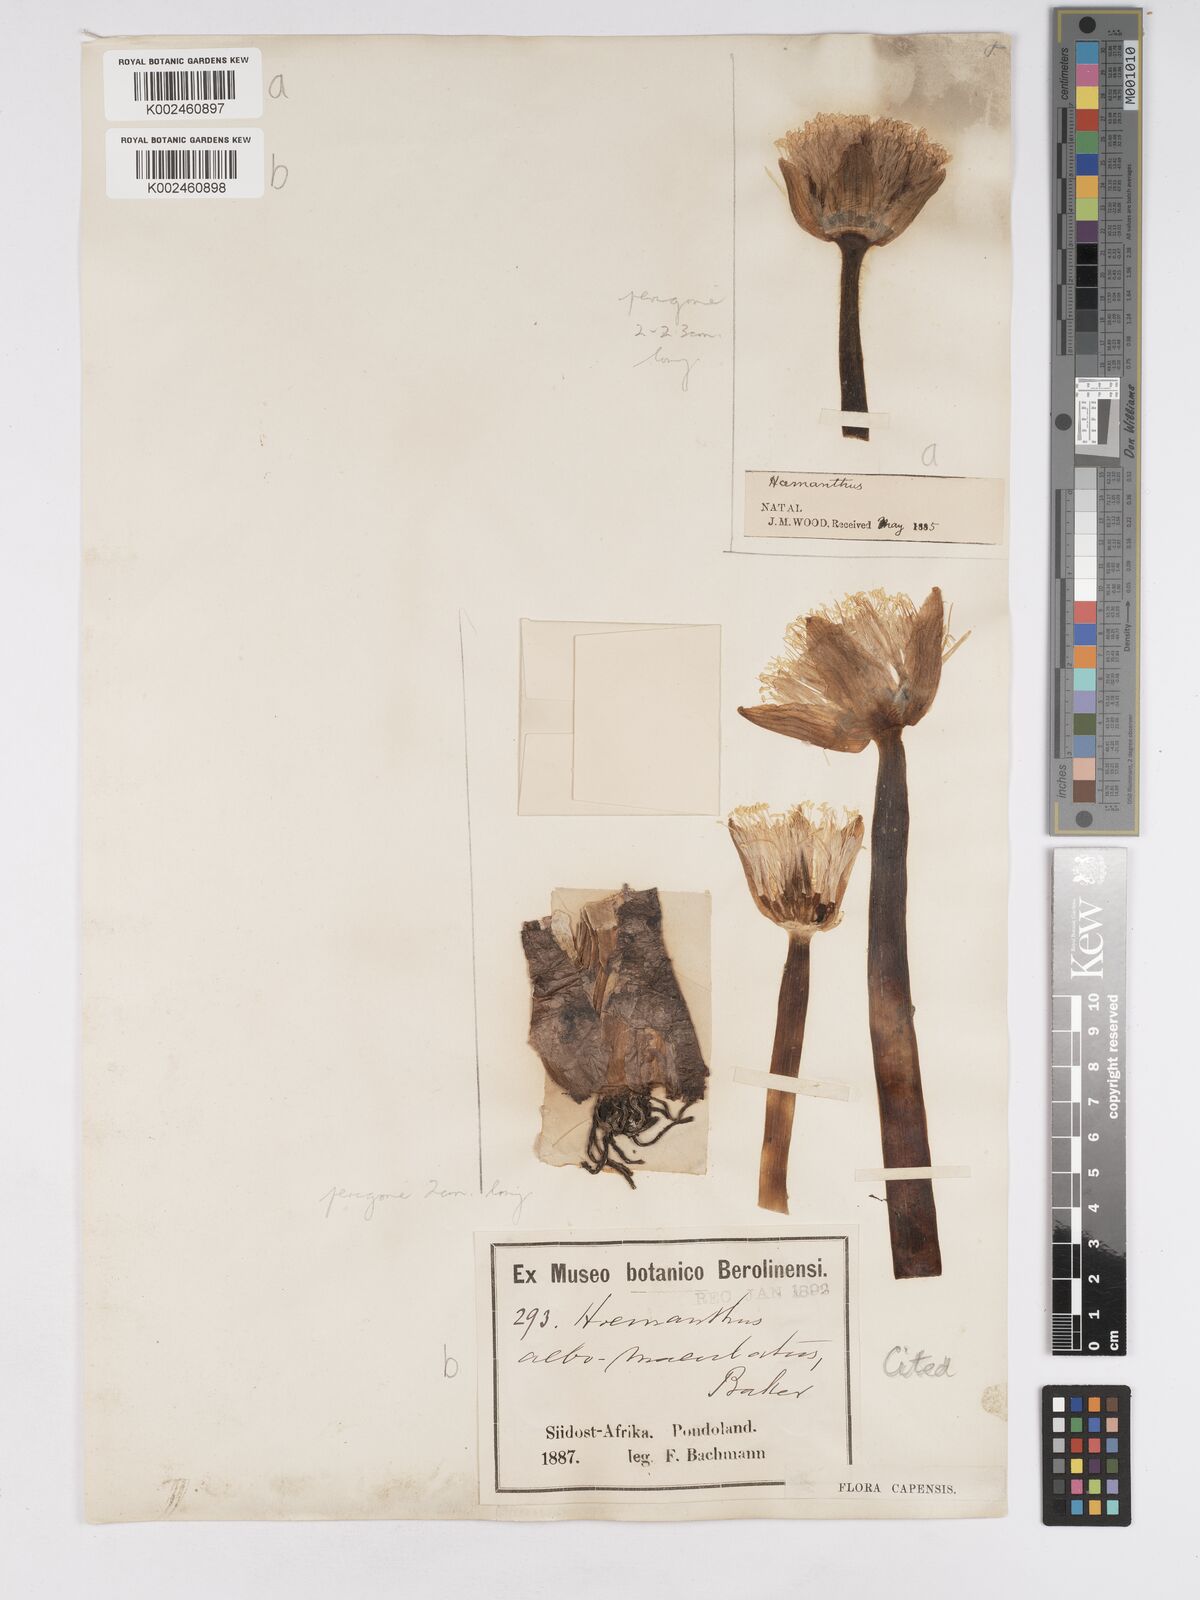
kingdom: Plantae
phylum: Tracheophyta
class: Liliopsida
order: Asparagales
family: Amaryllidaceae
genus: Haemanthus
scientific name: Haemanthus albiflos
